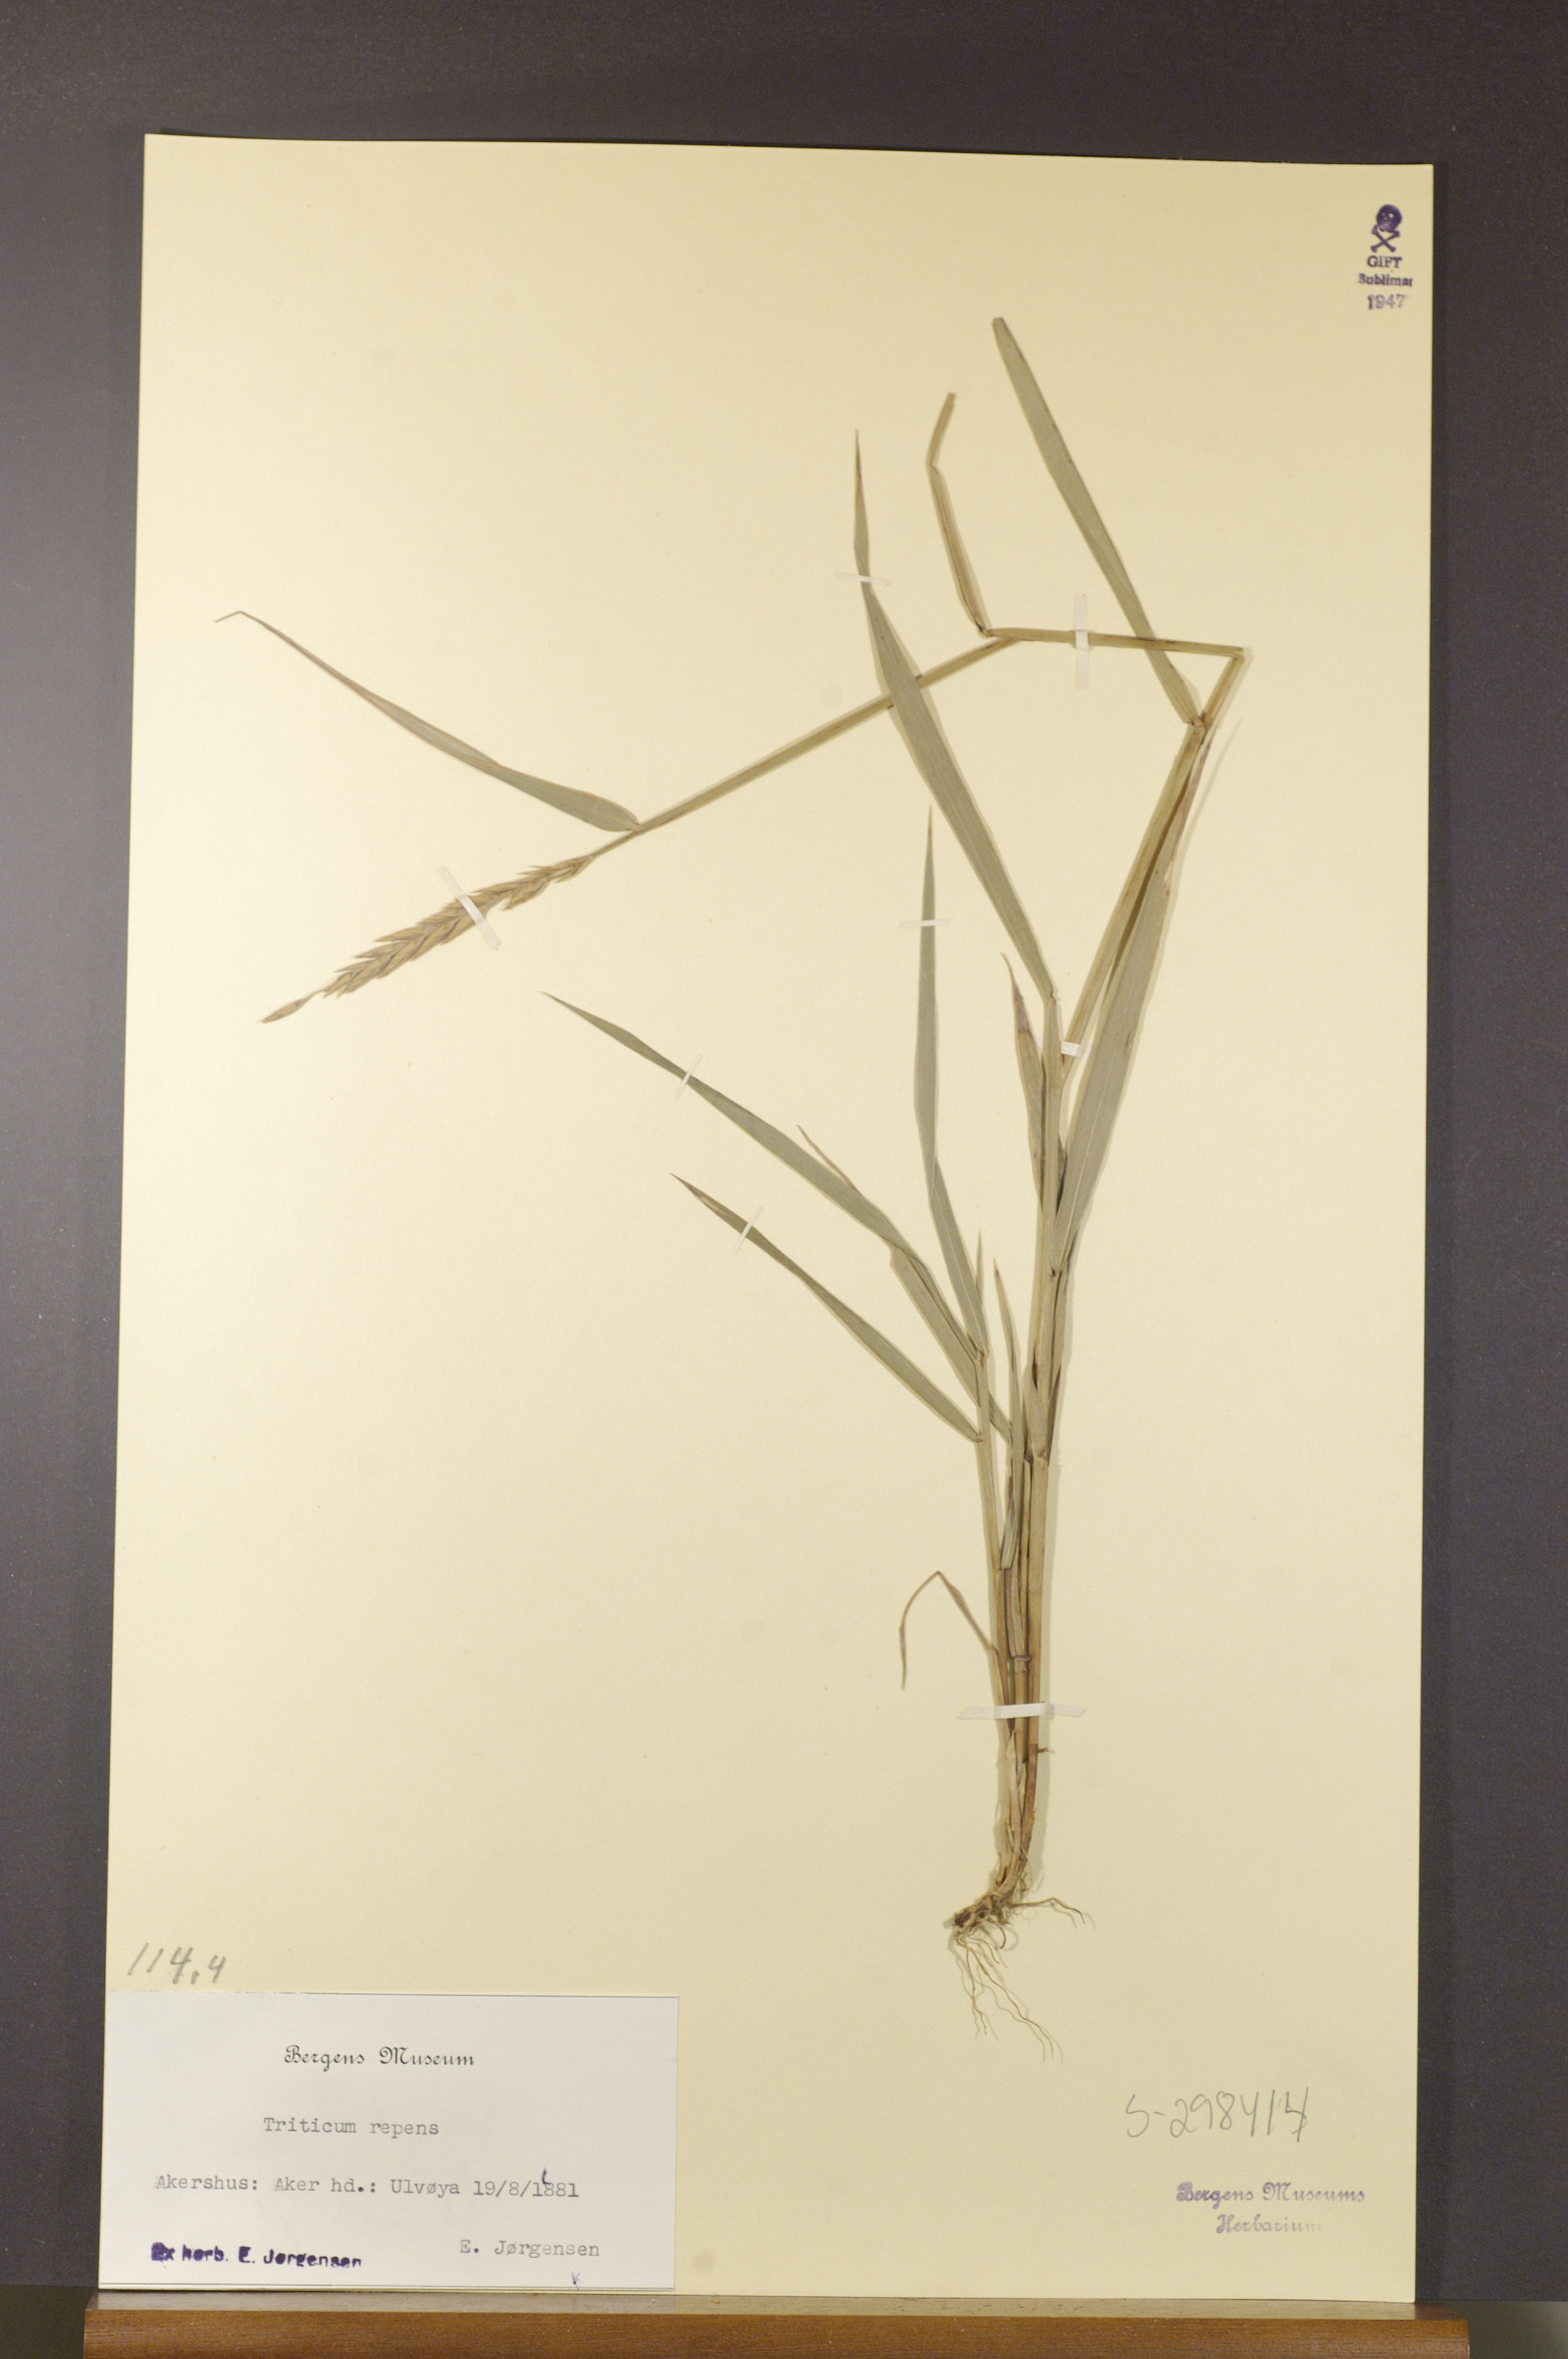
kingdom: Plantae
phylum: Tracheophyta
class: Liliopsida
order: Poales
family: Poaceae
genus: Elymus
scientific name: Elymus repens
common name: Quackgrass
